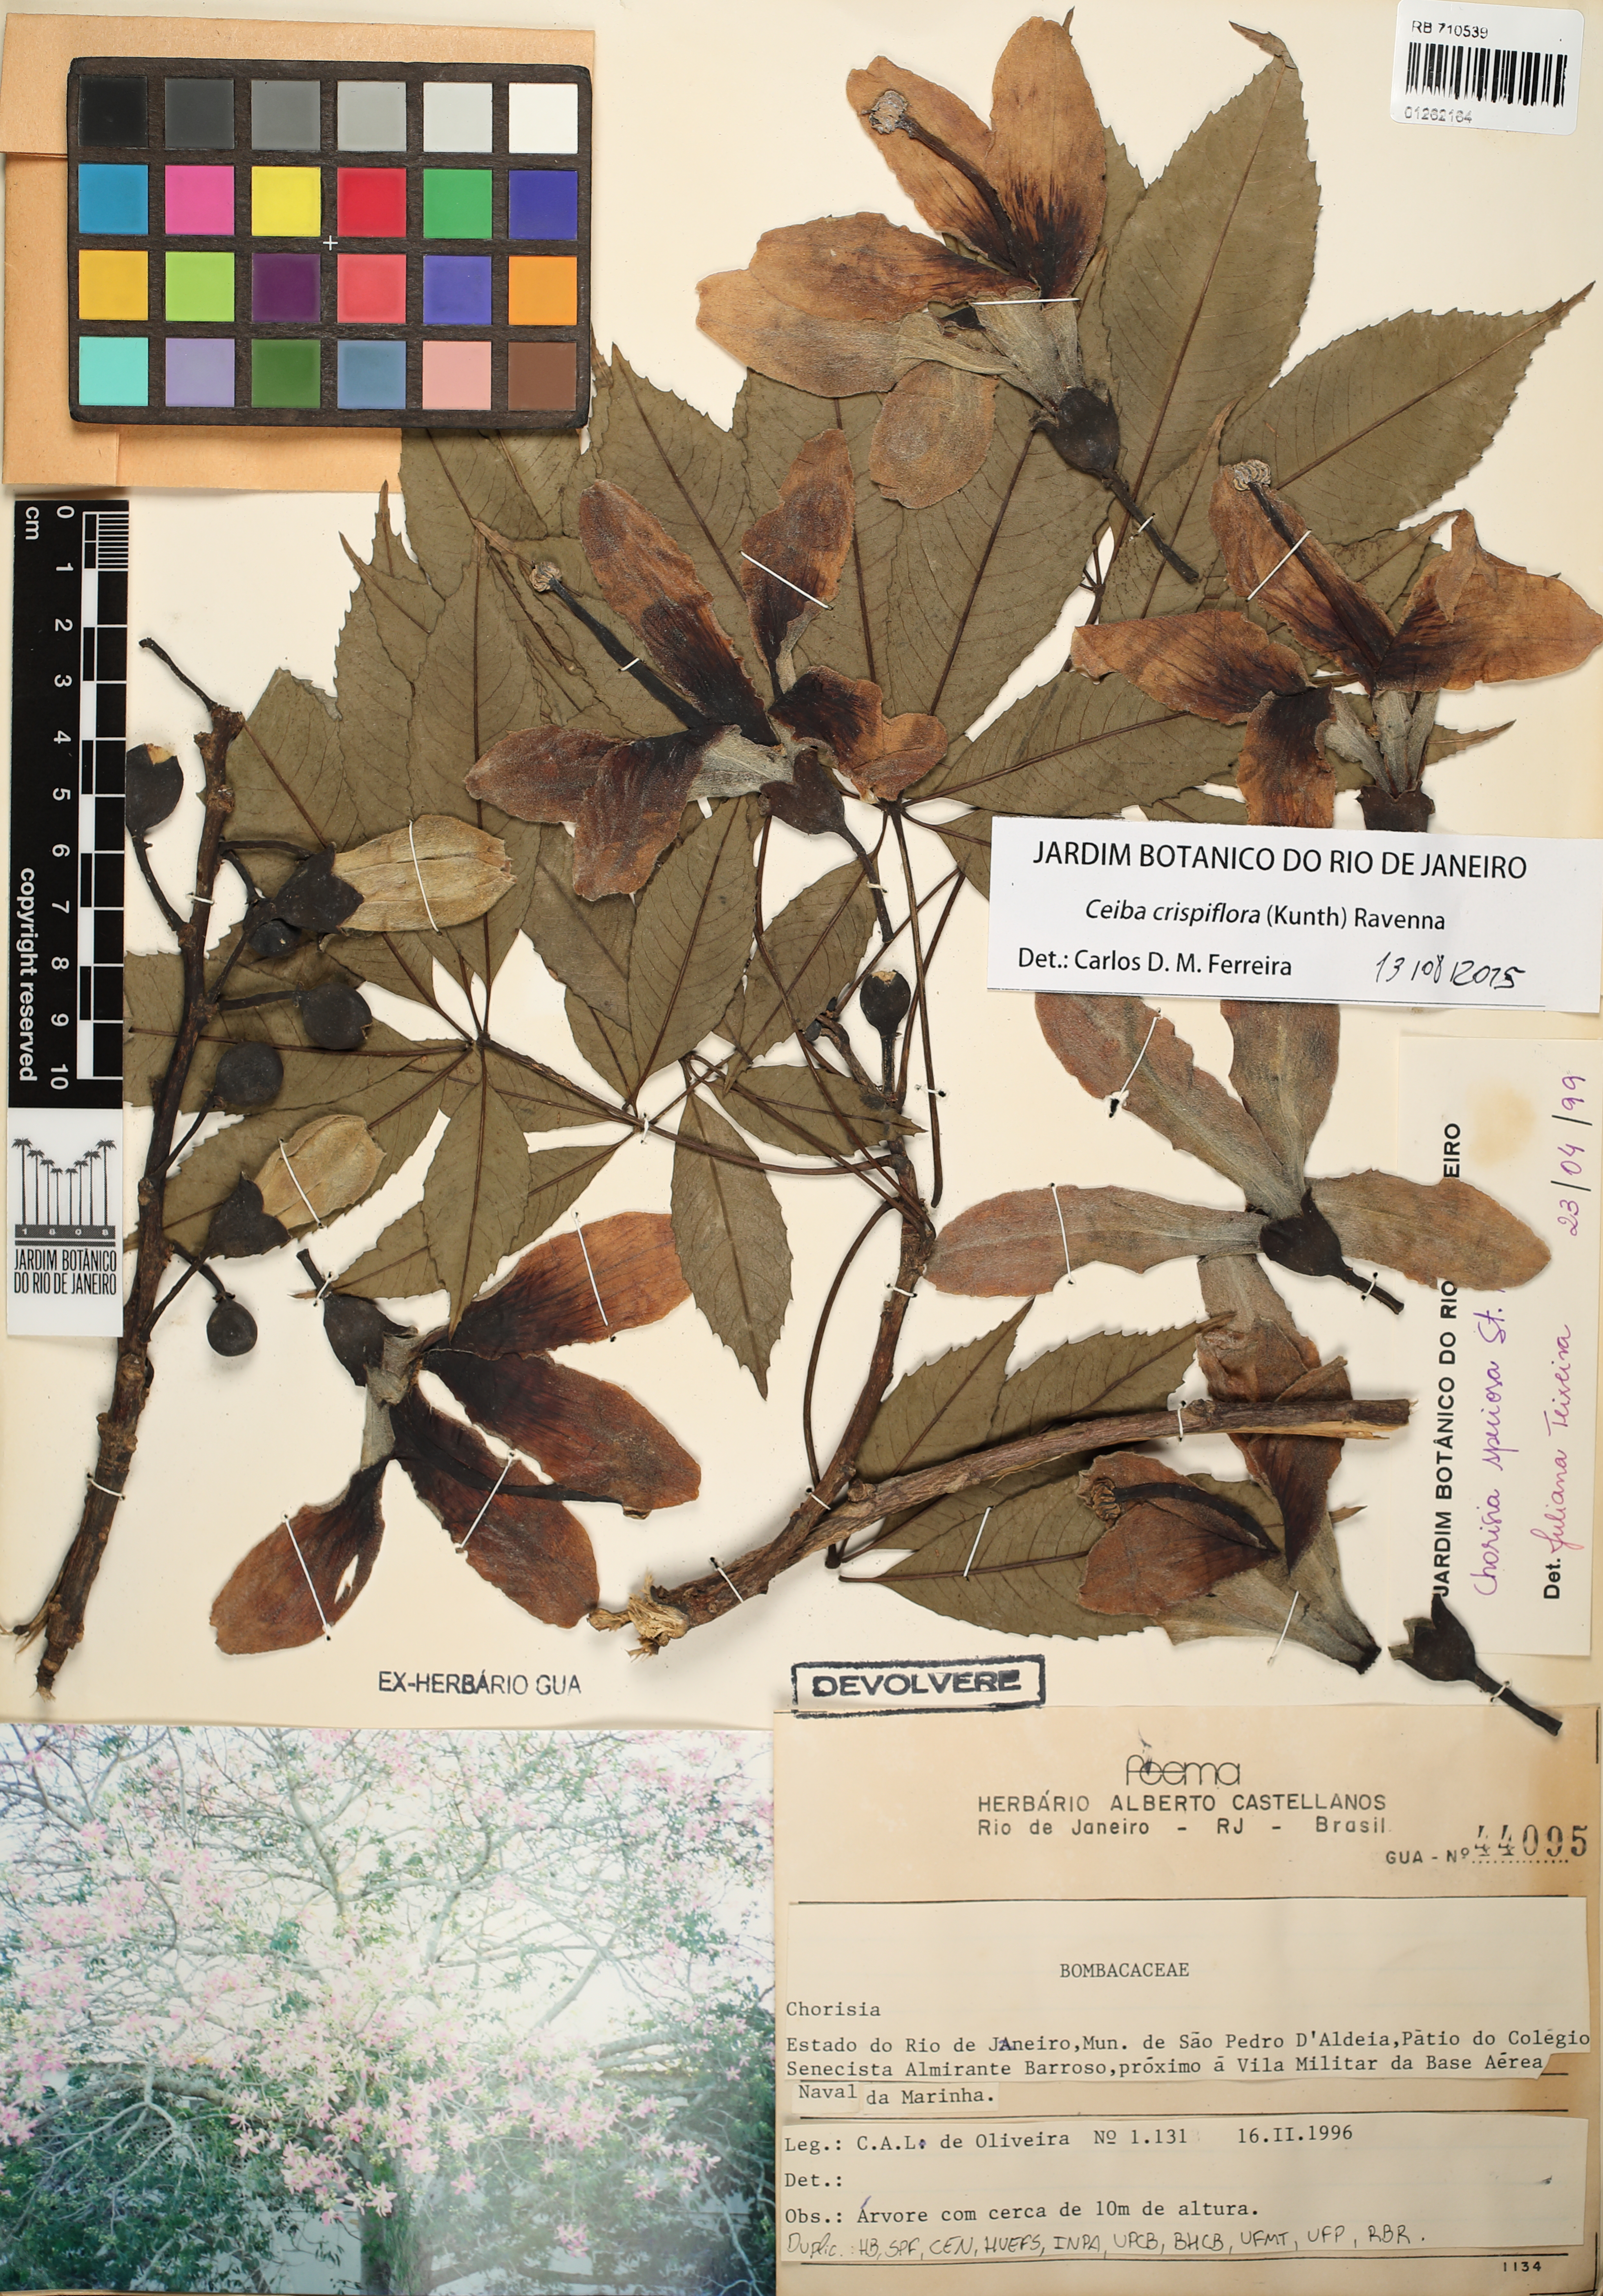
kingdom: Plantae
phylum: Tracheophyta
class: Magnoliopsida
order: Malvales
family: Malvaceae
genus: Ceiba
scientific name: Ceiba speciosa
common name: Silk-floss tree
